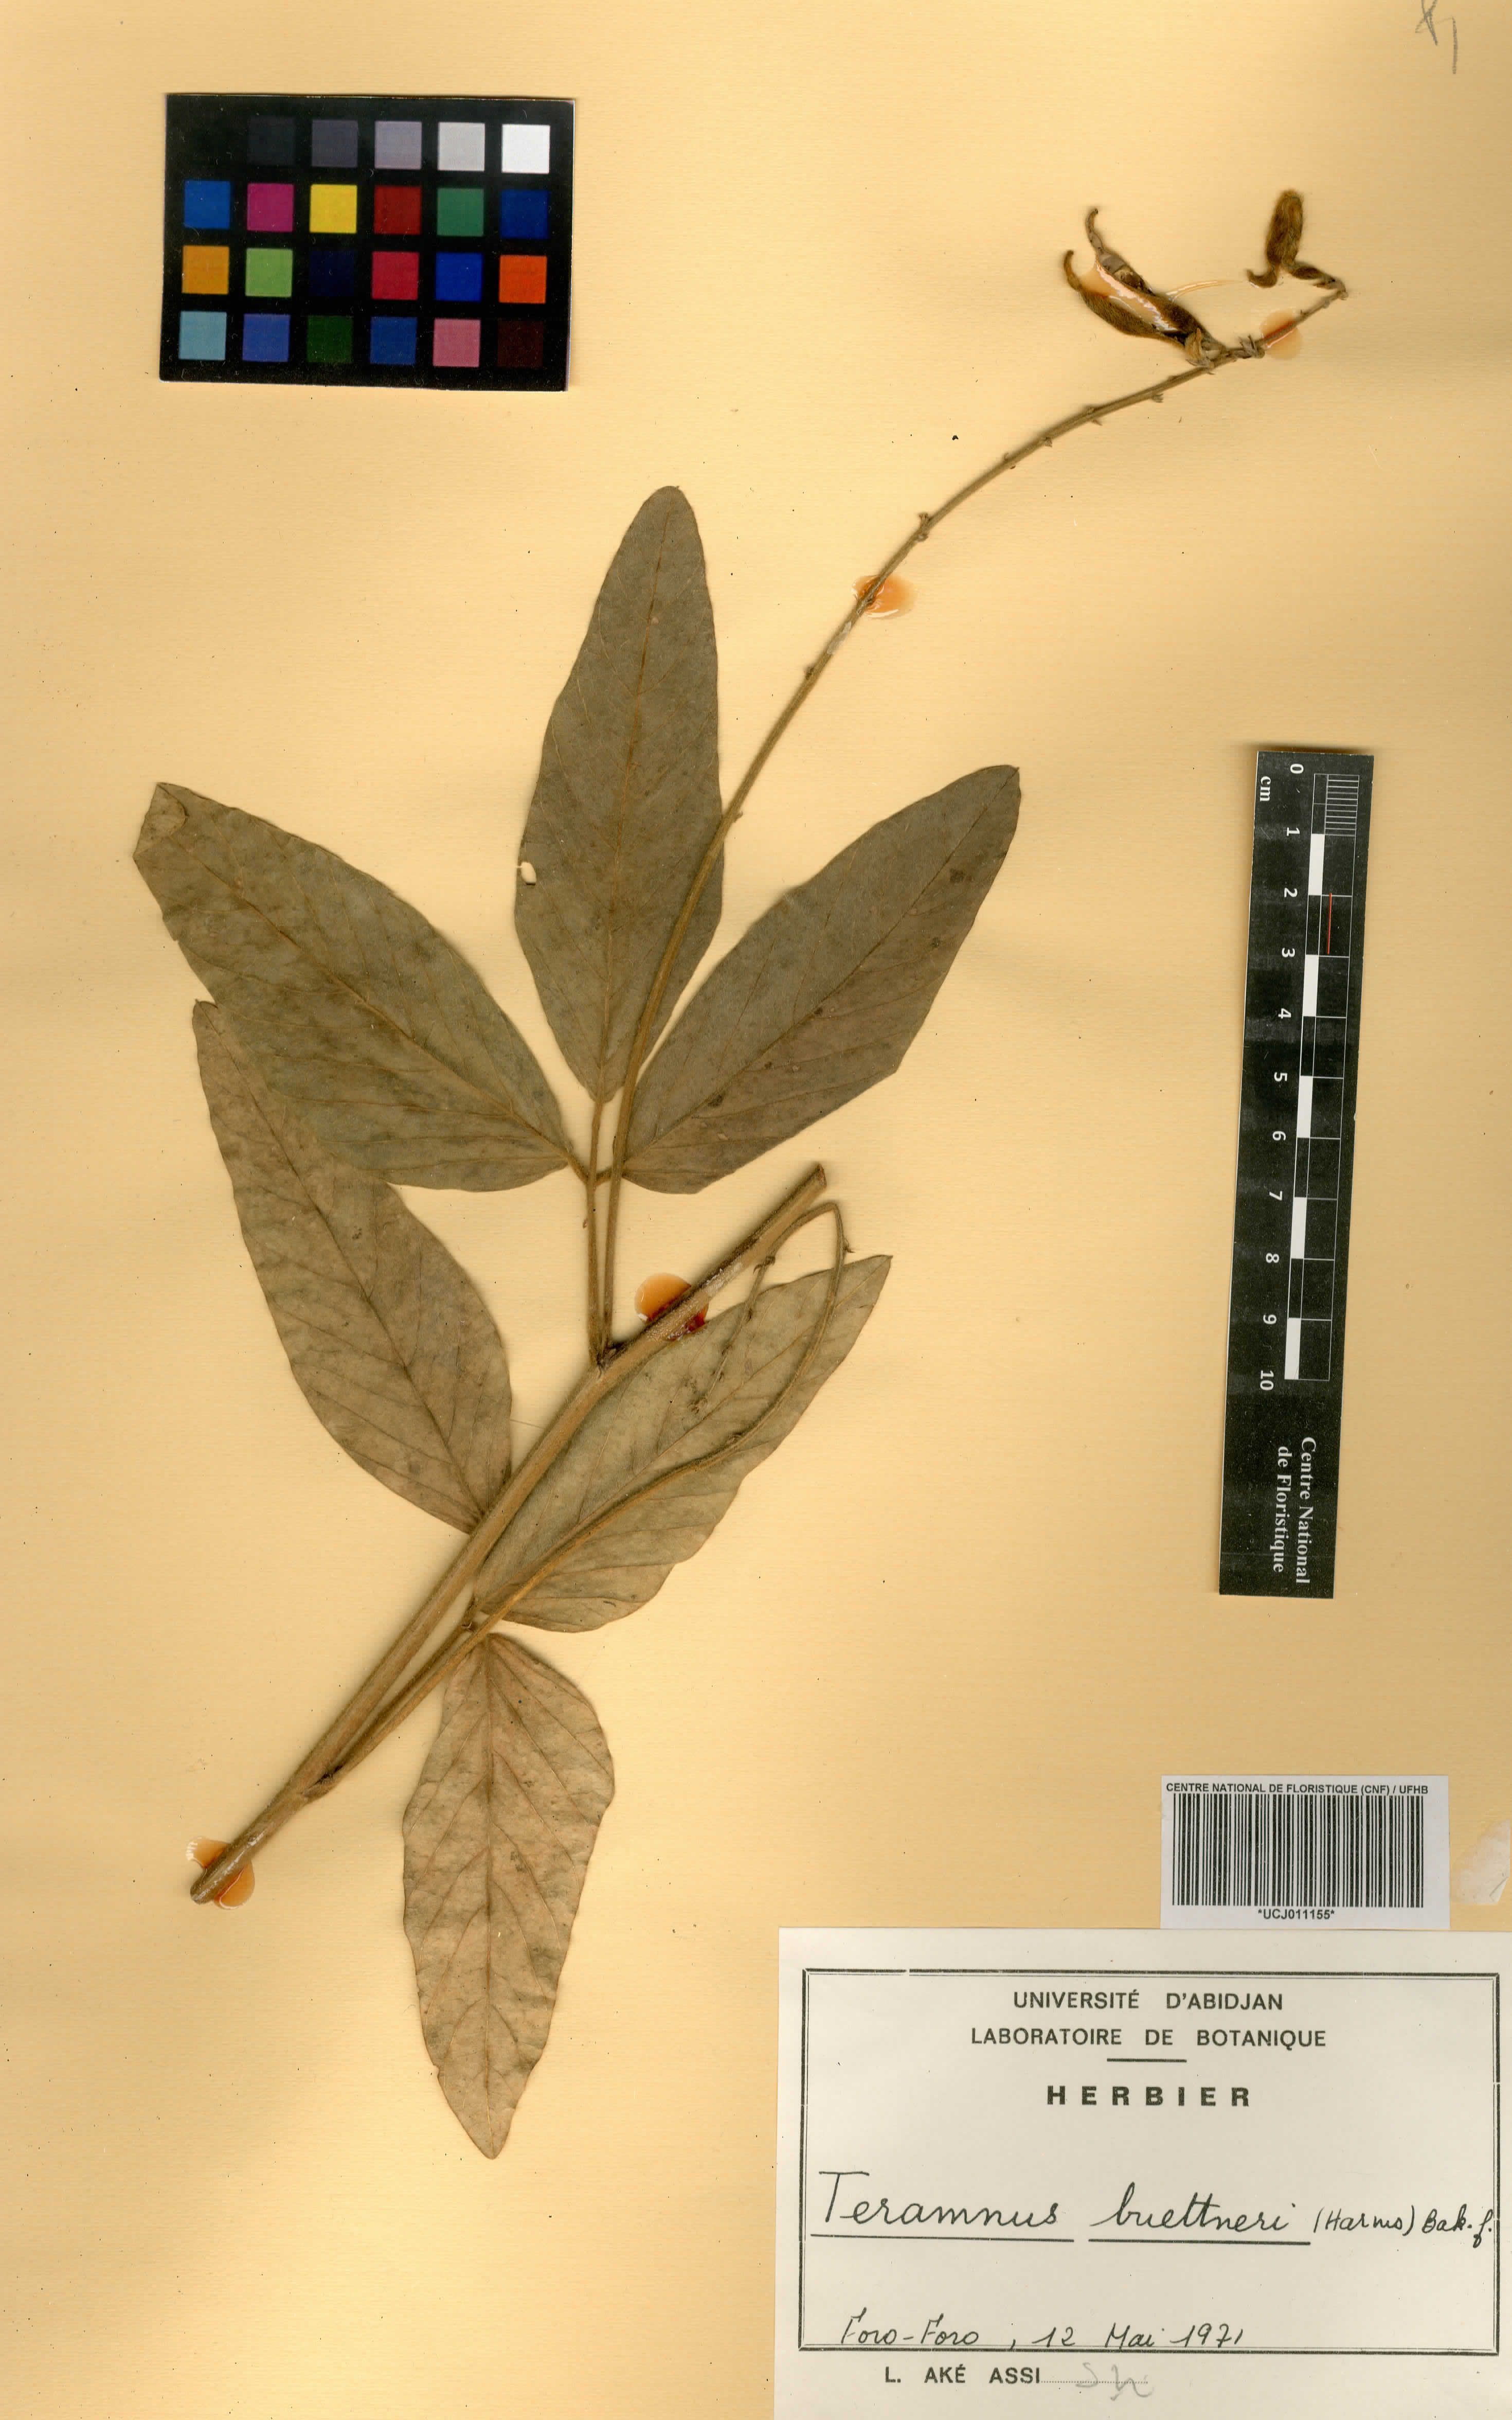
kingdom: Plantae
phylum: Tracheophyta
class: Magnoliopsida
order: Fabales
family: Fabaceae
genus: Teramnus
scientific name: Teramnus buettneri
